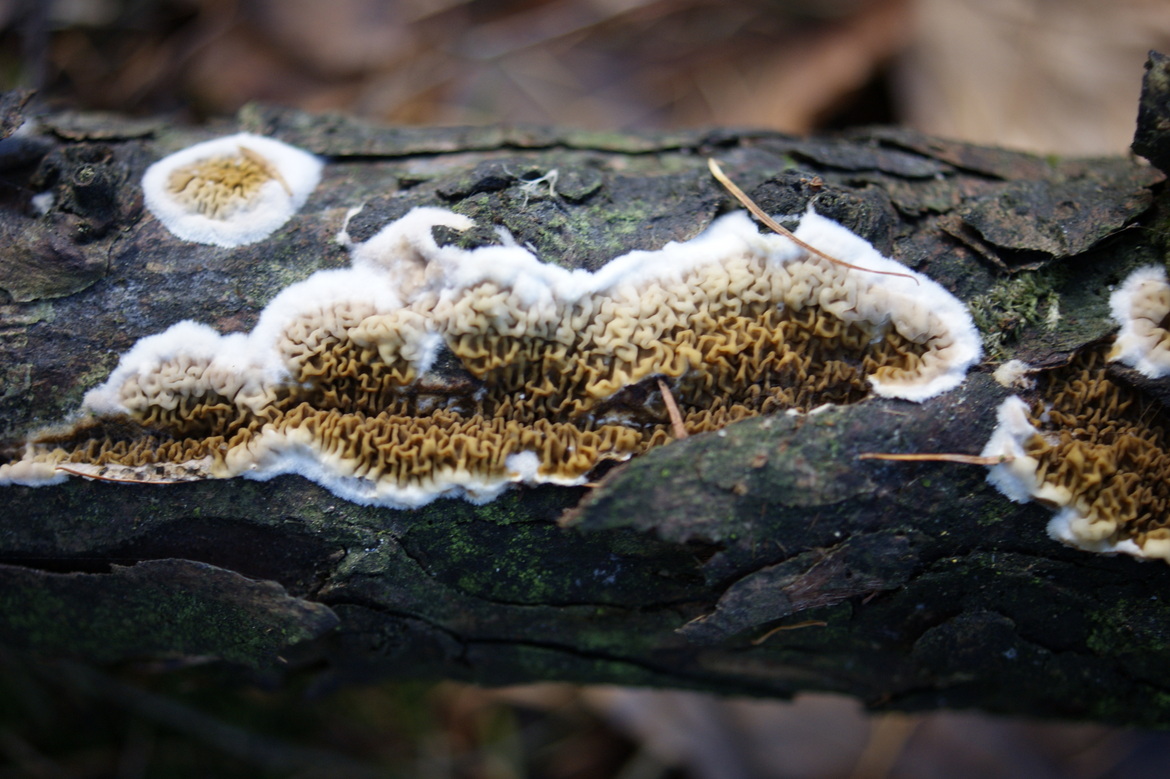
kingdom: Fungi
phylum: Basidiomycota
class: Agaricomycetes
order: Boletales
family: Serpulaceae
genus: Serpula
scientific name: Serpula himantioides
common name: tyndkødet hussvamp
